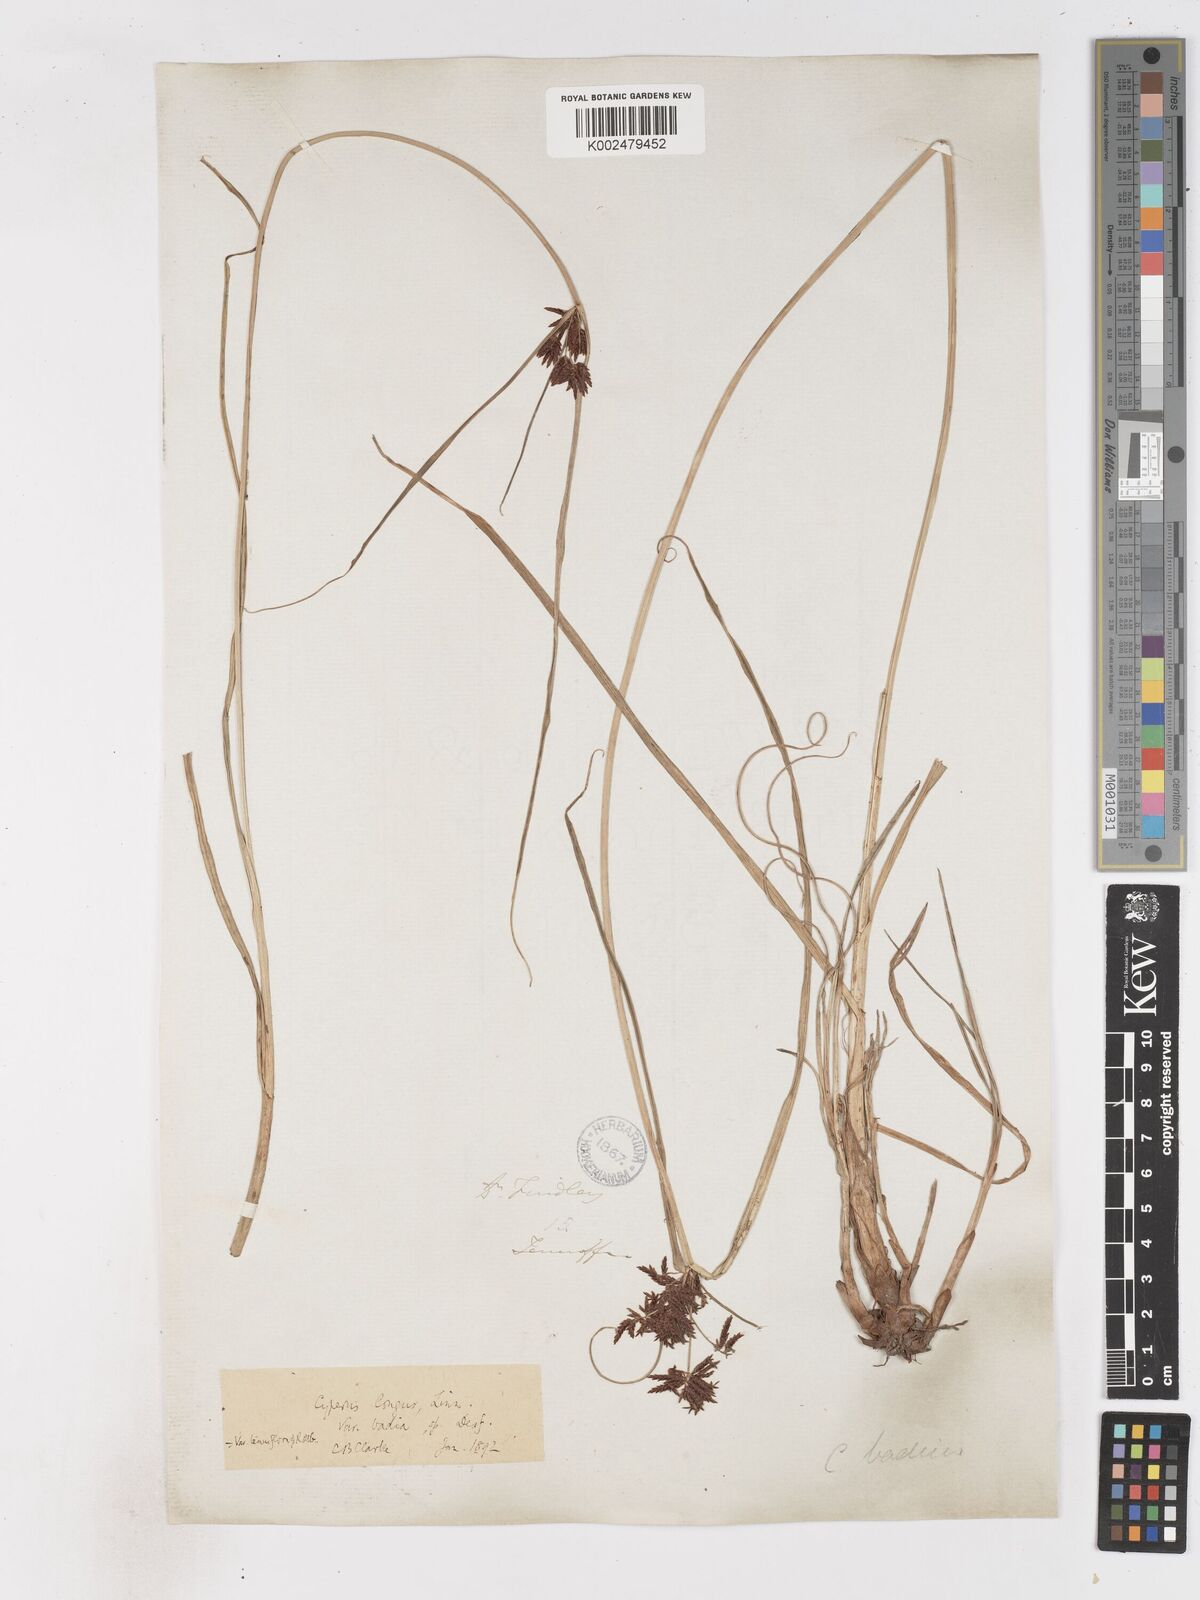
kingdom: Plantae
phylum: Tracheophyta
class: Liliopsida
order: Poales
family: Cyperaceae
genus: Cyperus
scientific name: Cyperus longus
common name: Galingale
